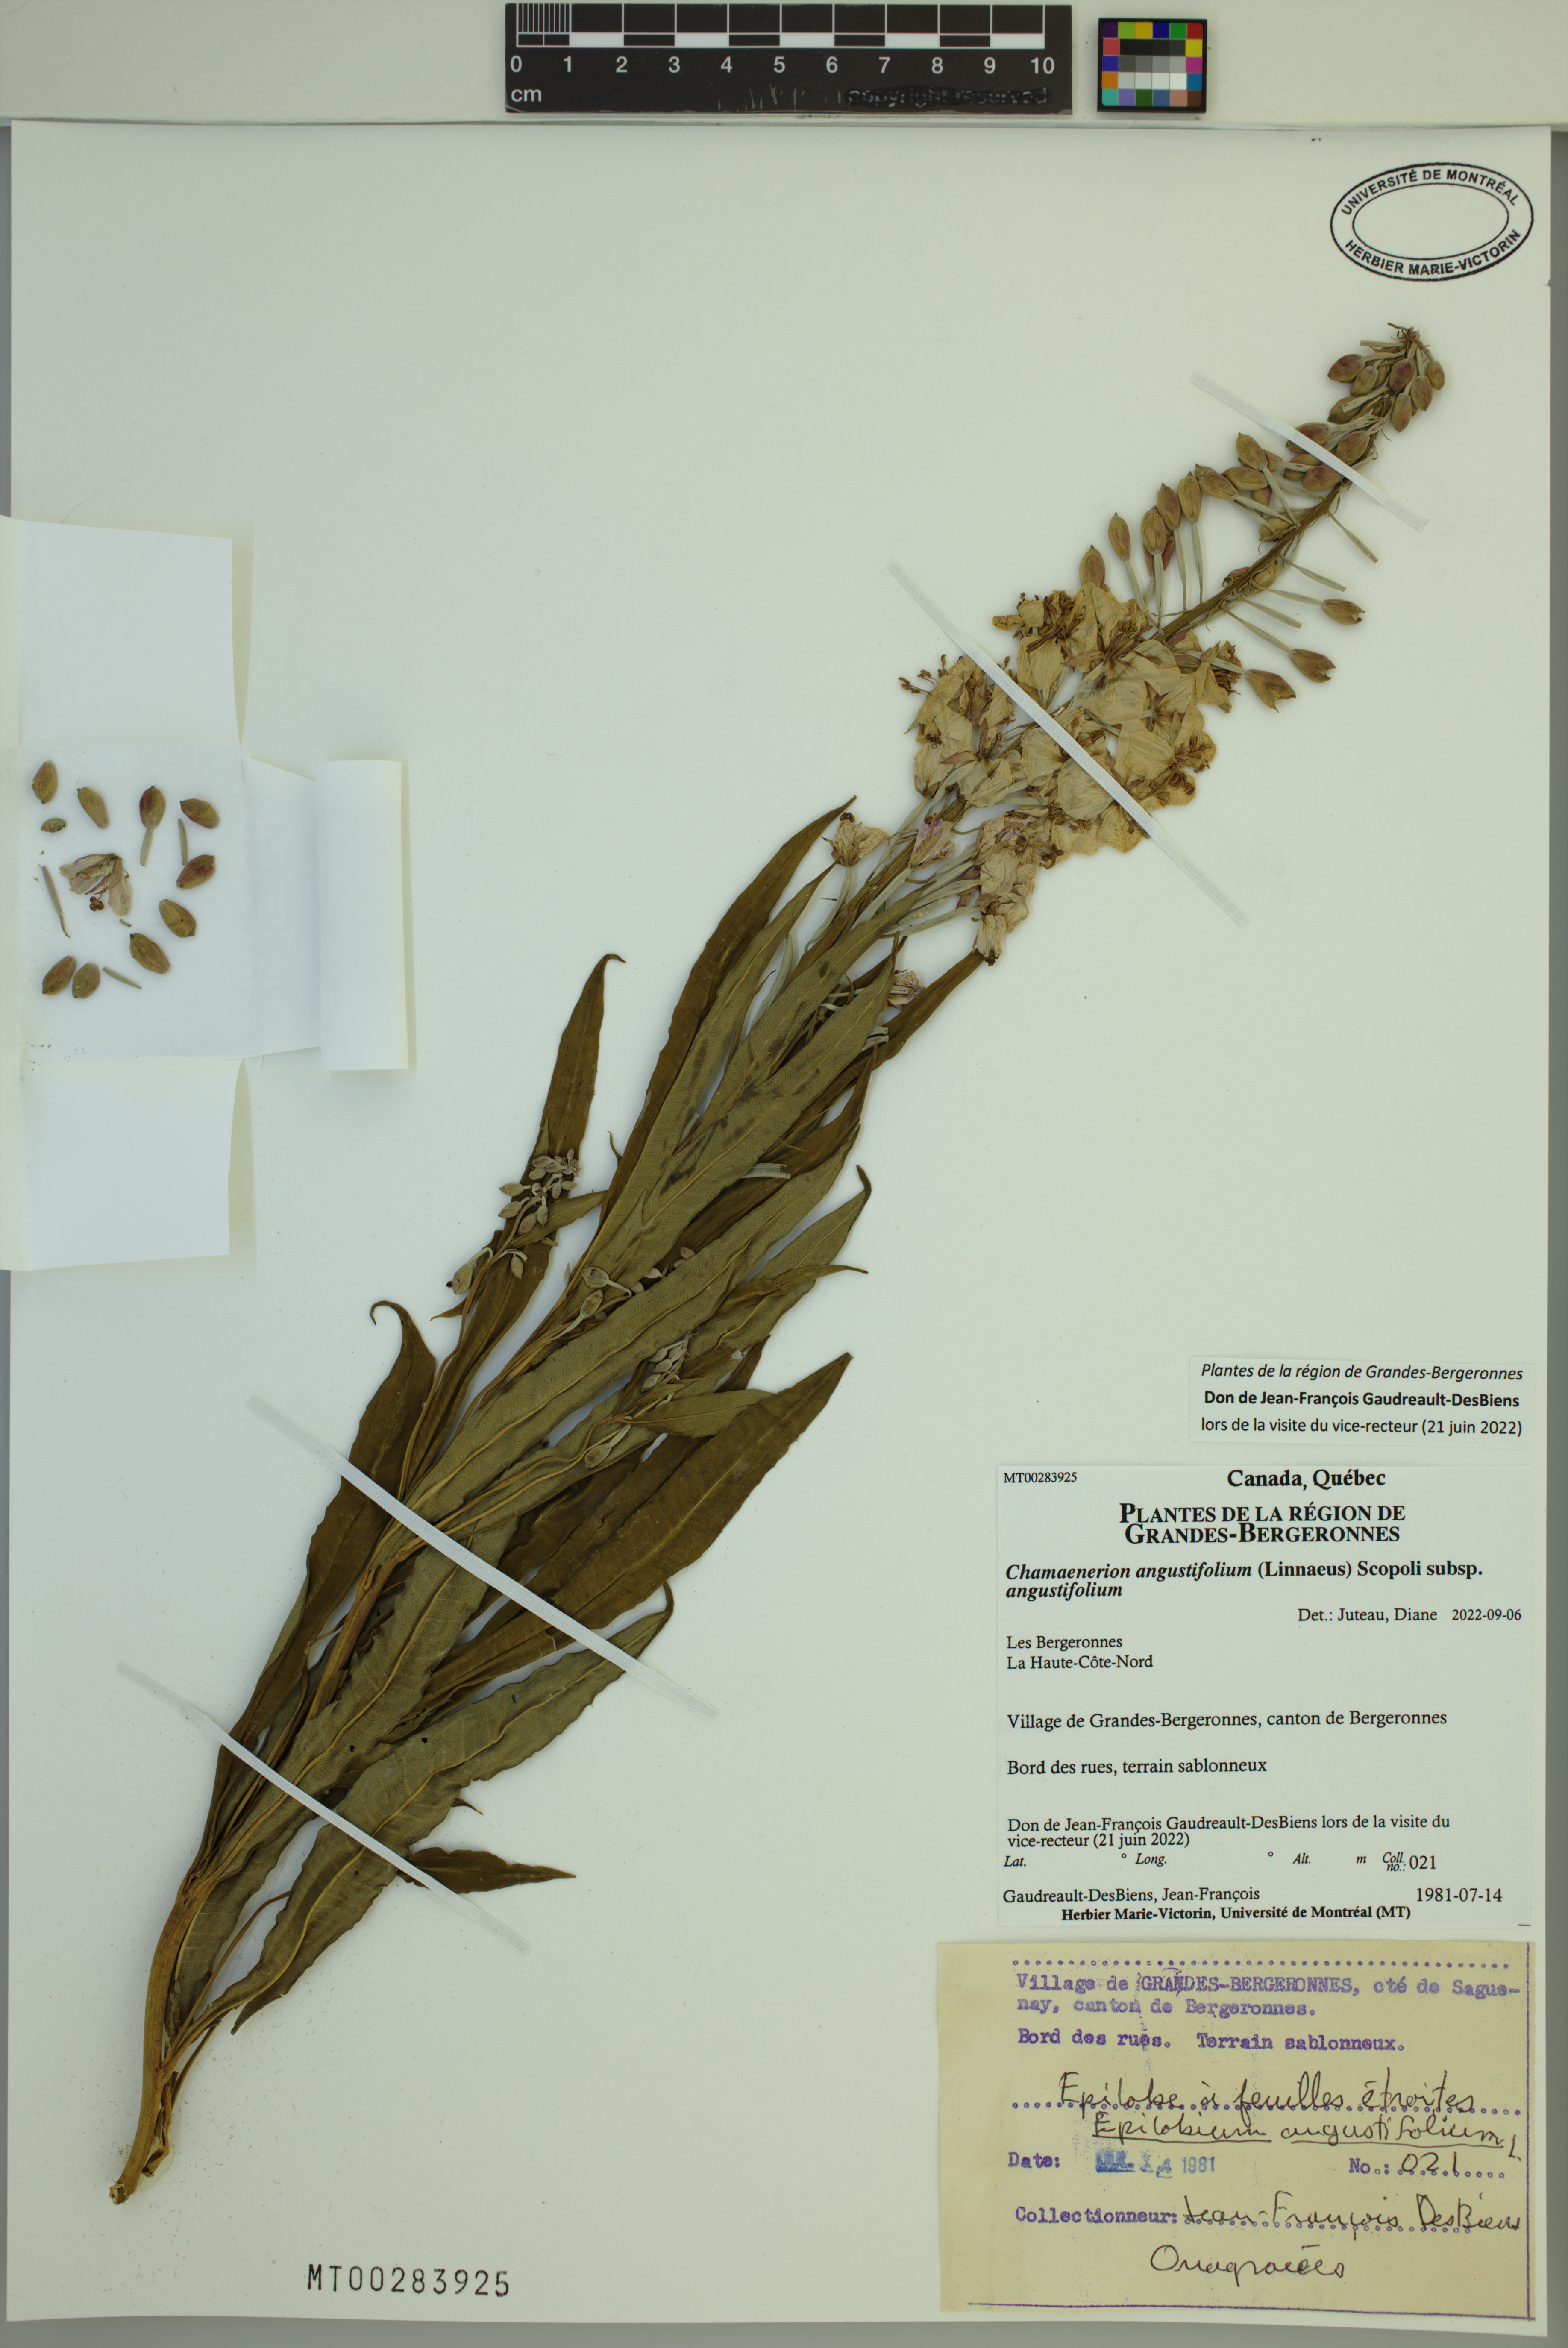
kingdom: Plantae
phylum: Tracheophyta
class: Magnoliopsida
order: Myrtales
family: Onagraceae
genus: Chamaenerion
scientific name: Chamaenerion angustifolium
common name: Fireweed
